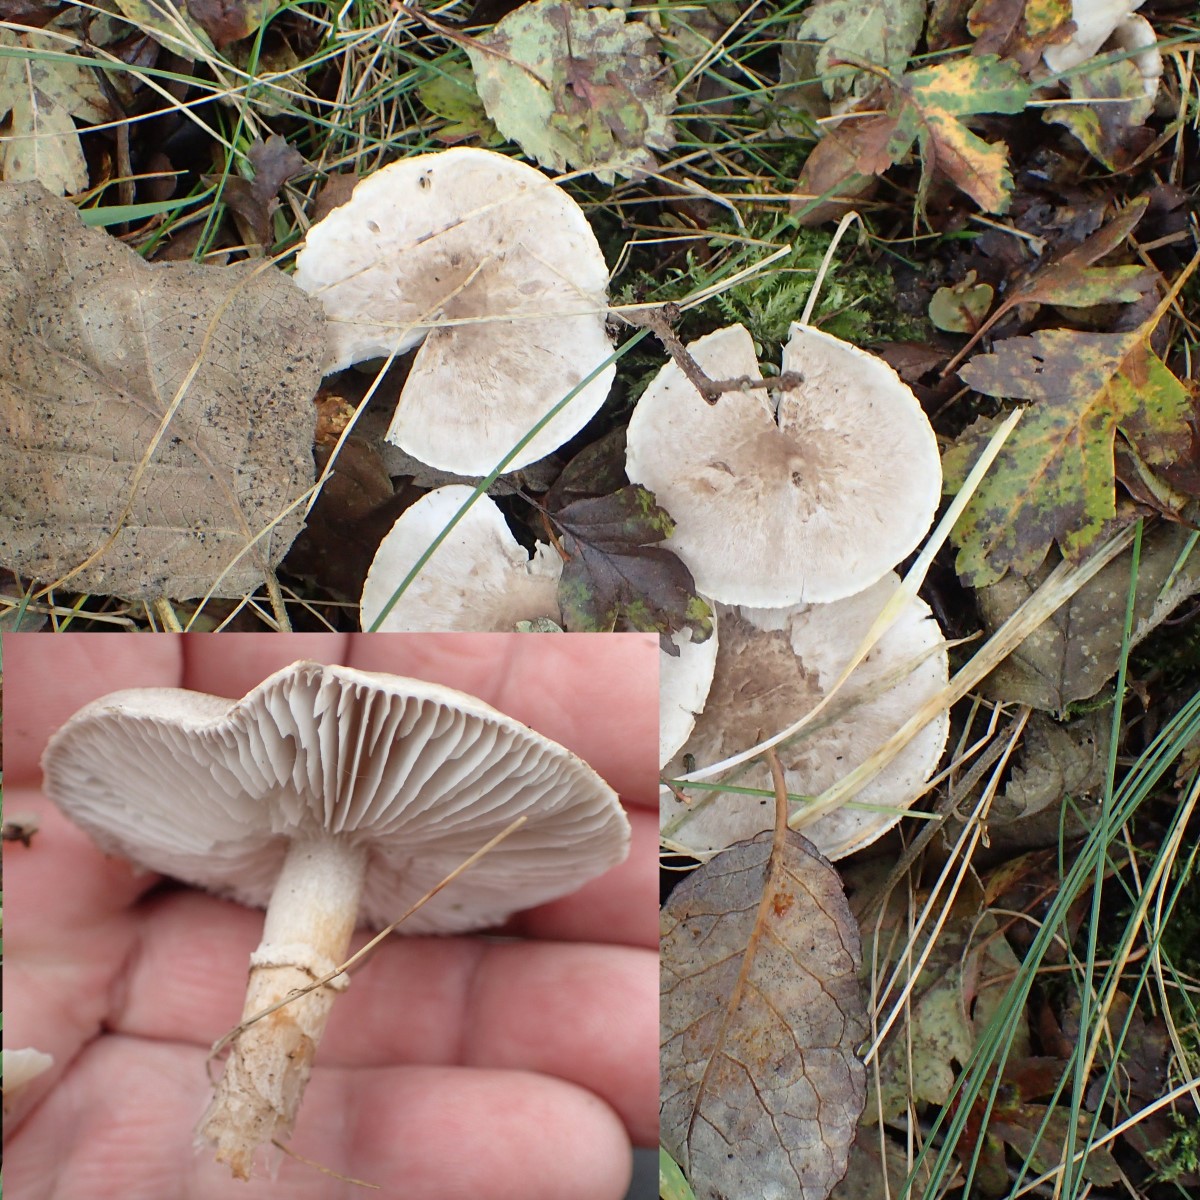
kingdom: Fungi
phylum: Basidiomycota
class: Agaricomycetes
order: Agaricales
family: Tricholomataceae
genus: Tricholoma
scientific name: Tricholoma cingulatum
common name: ring-ridderhat
